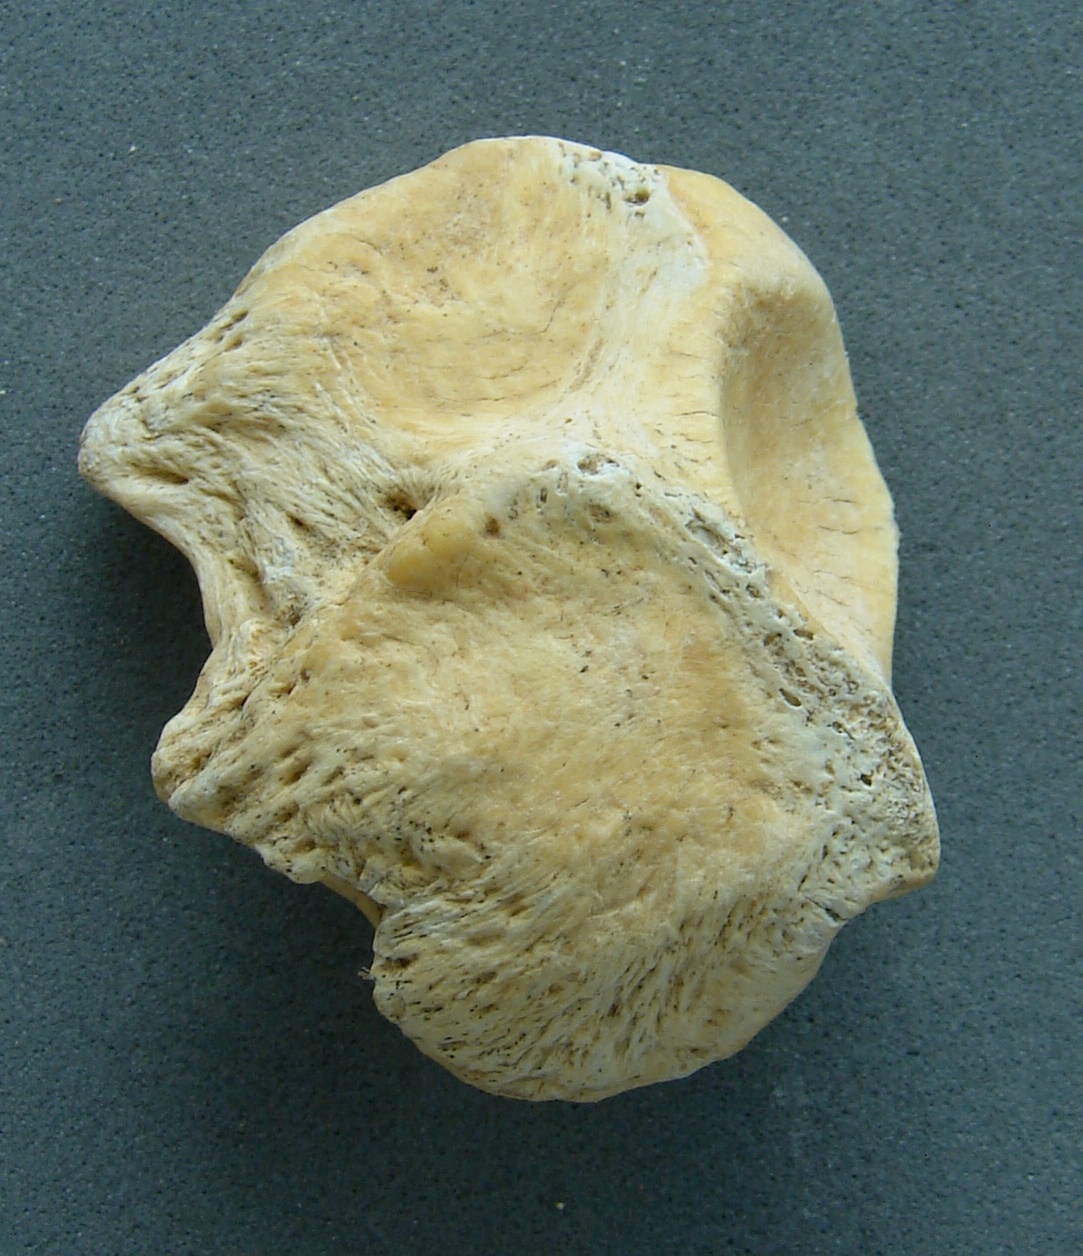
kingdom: Animalia
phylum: Chordata
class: Mammalia
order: Artiodactyla
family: Cervidae
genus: Cervus
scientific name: Cervus elaphus
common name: Red deer
